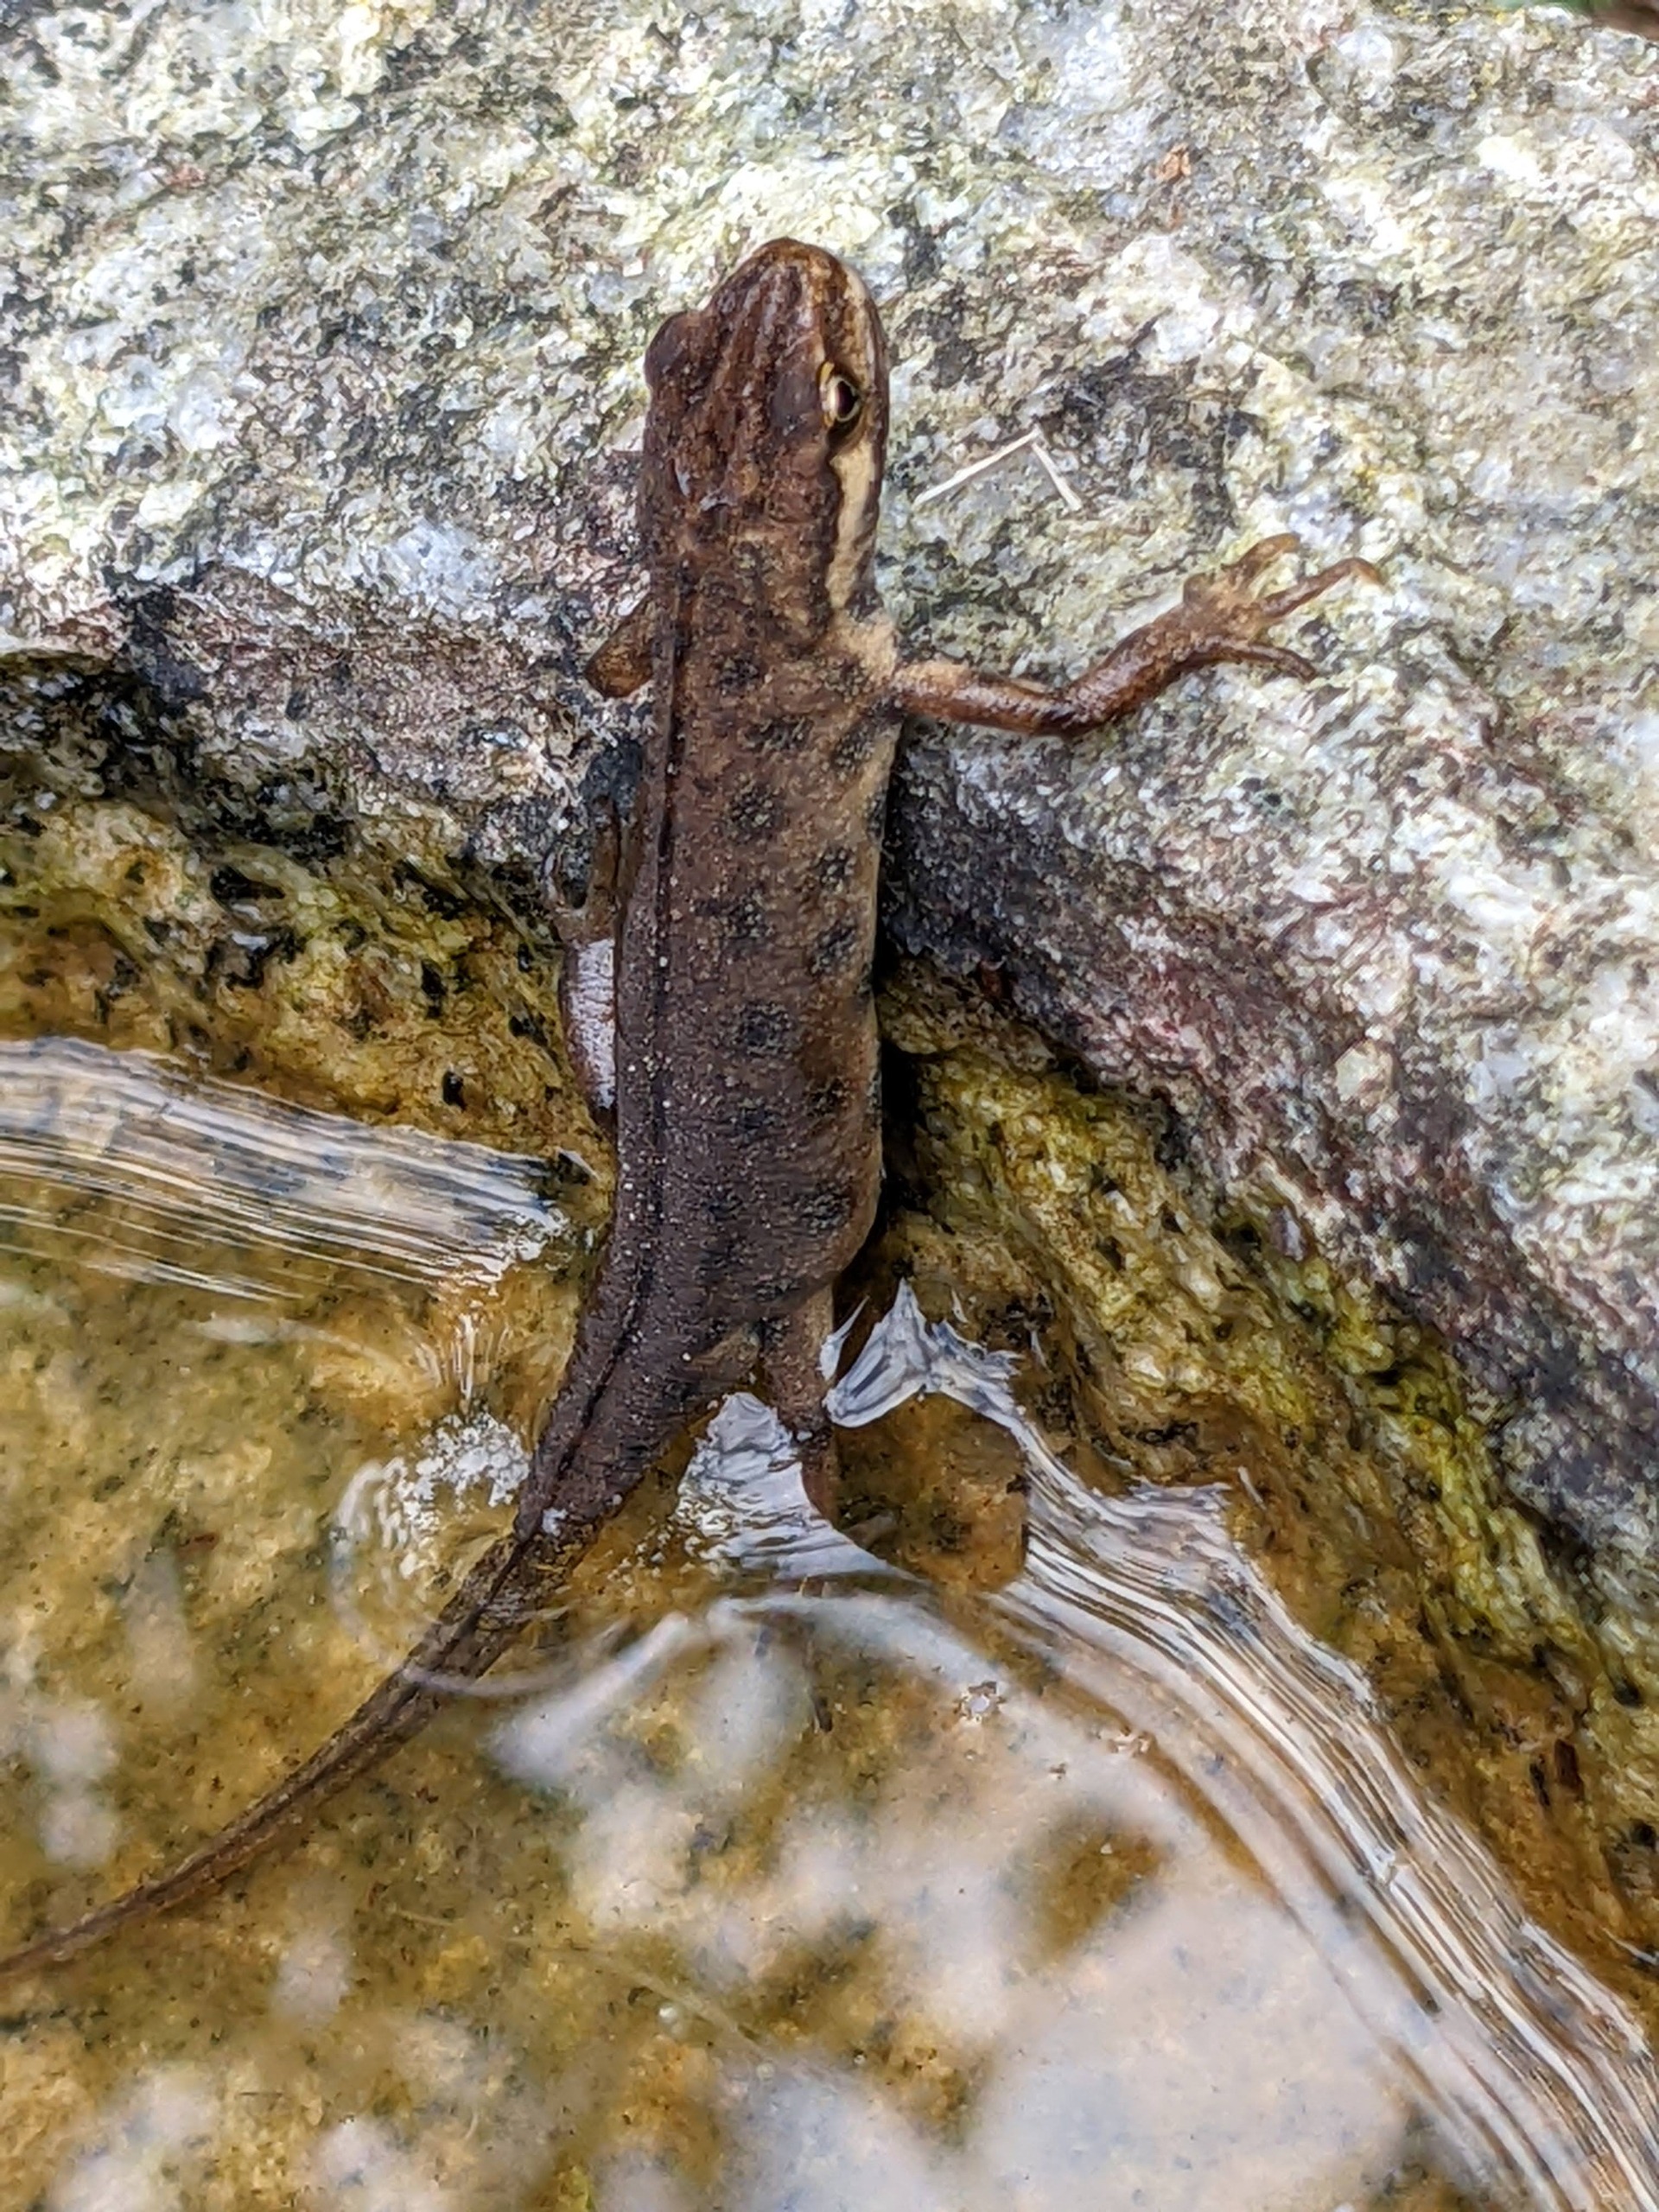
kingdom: Animalia
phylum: Chordata
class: Amphibia
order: Caudata
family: Salamandridae
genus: Lissotriton
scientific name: Lissotriton vulgaris
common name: Lille vandsalamander
